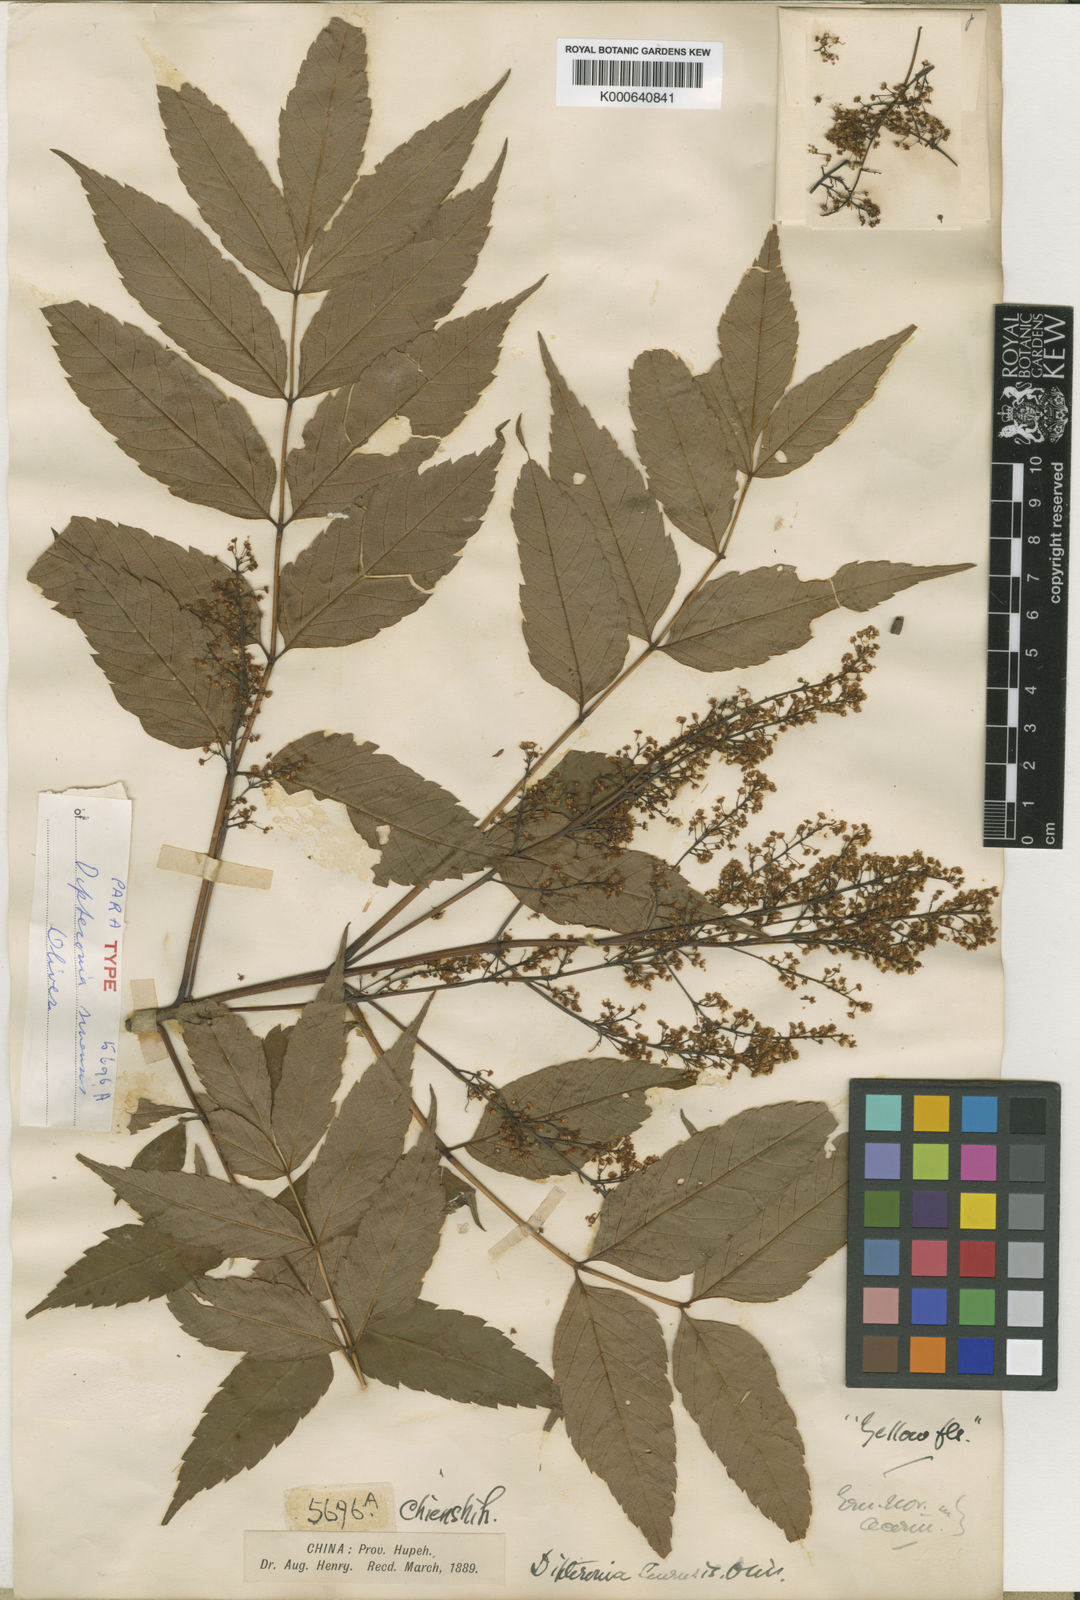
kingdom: Plantae
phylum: Tracheophyta
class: Magnoliopsida
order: Sapindales
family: Sapindaceae
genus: Dipteronia
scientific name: Dipteronia dyeriana
